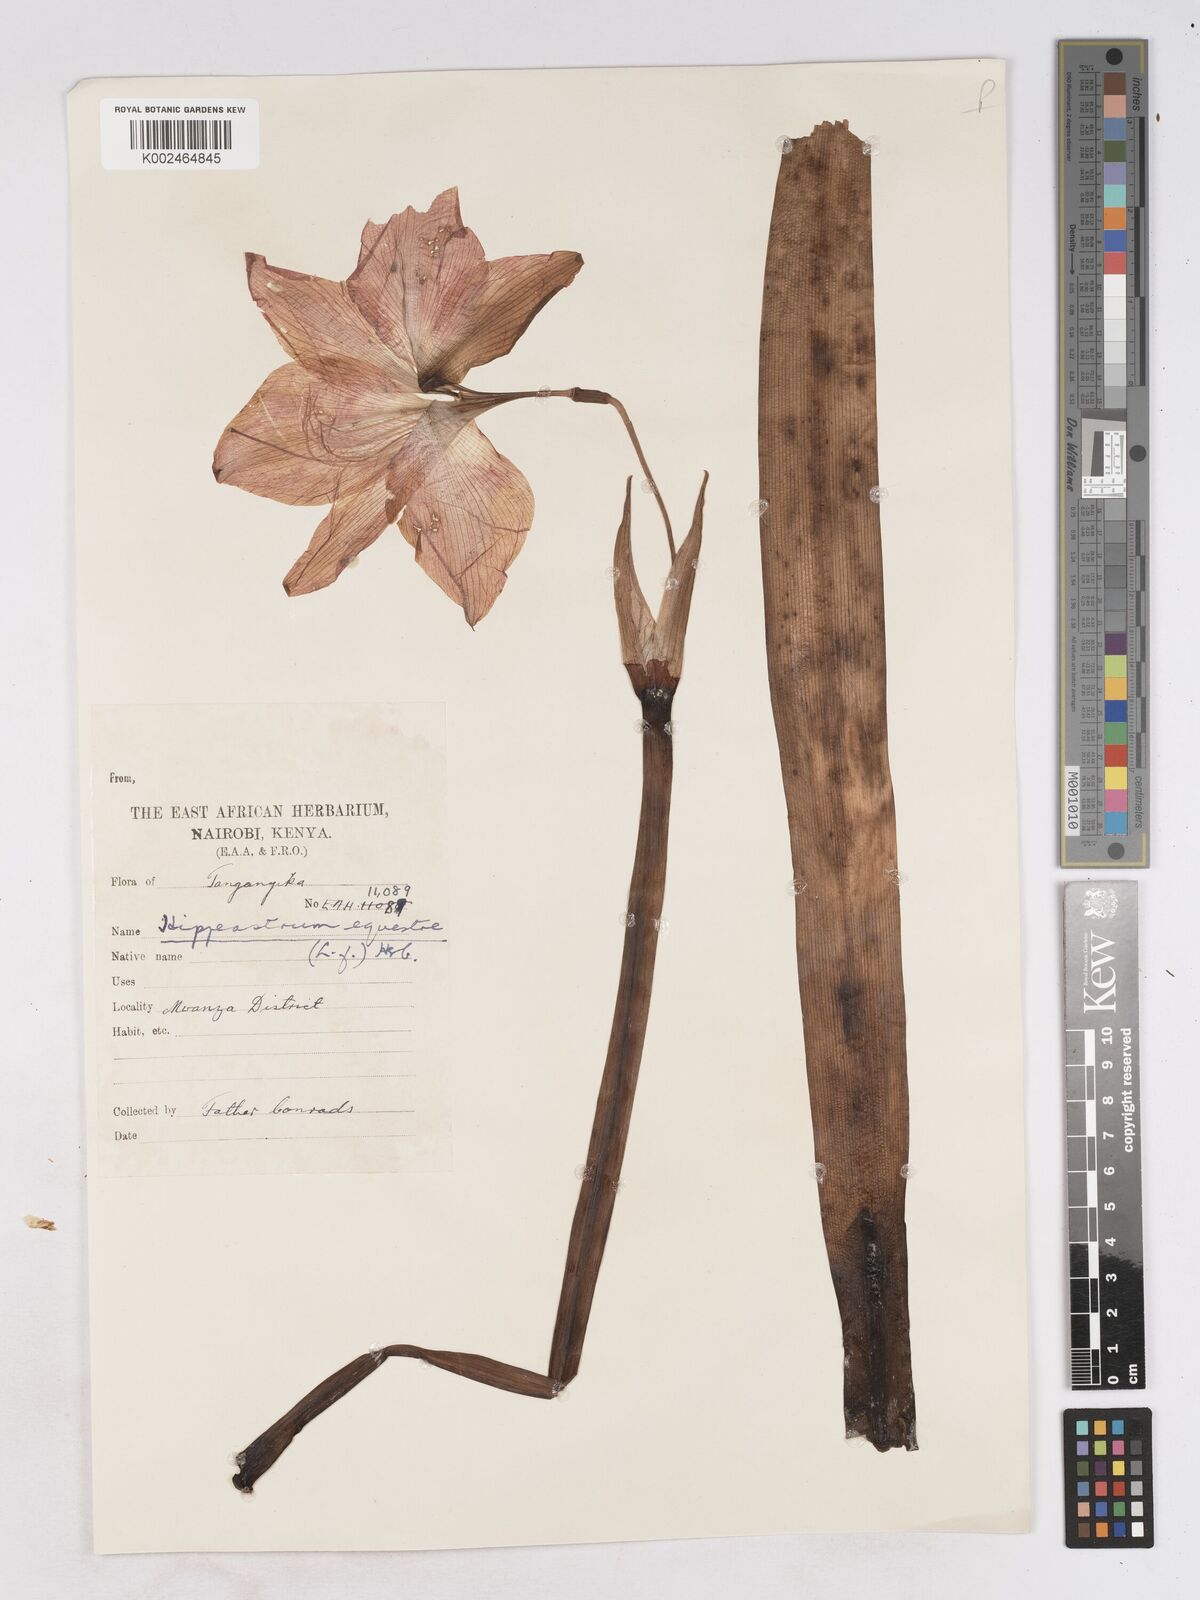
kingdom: Plantae
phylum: Tracheophyta
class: Liliopsida
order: Asparagales
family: Amaryllidaceae
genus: Hippeastrum
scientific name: Hippeastrum
